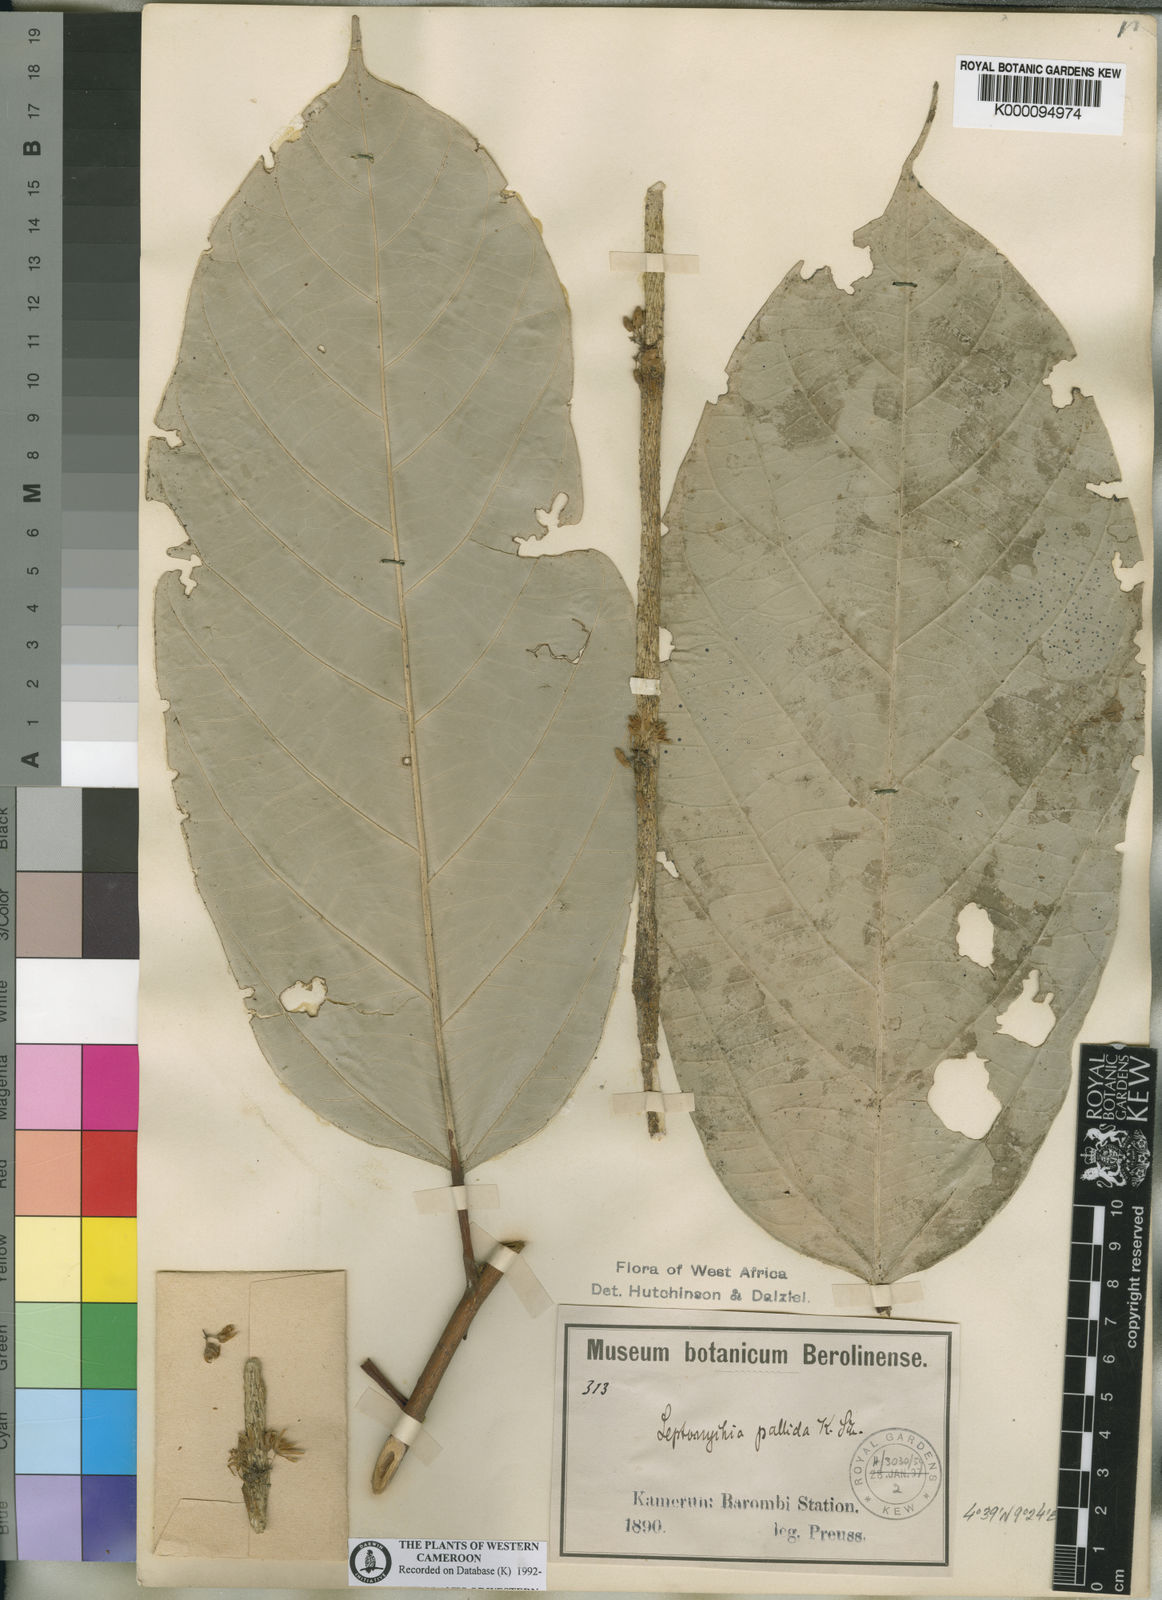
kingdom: Plantae
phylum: Tracheophyta
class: Magnoliopsida
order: Malvales
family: Malvaceae
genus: Leptonychia
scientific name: Leptonychia pallida
